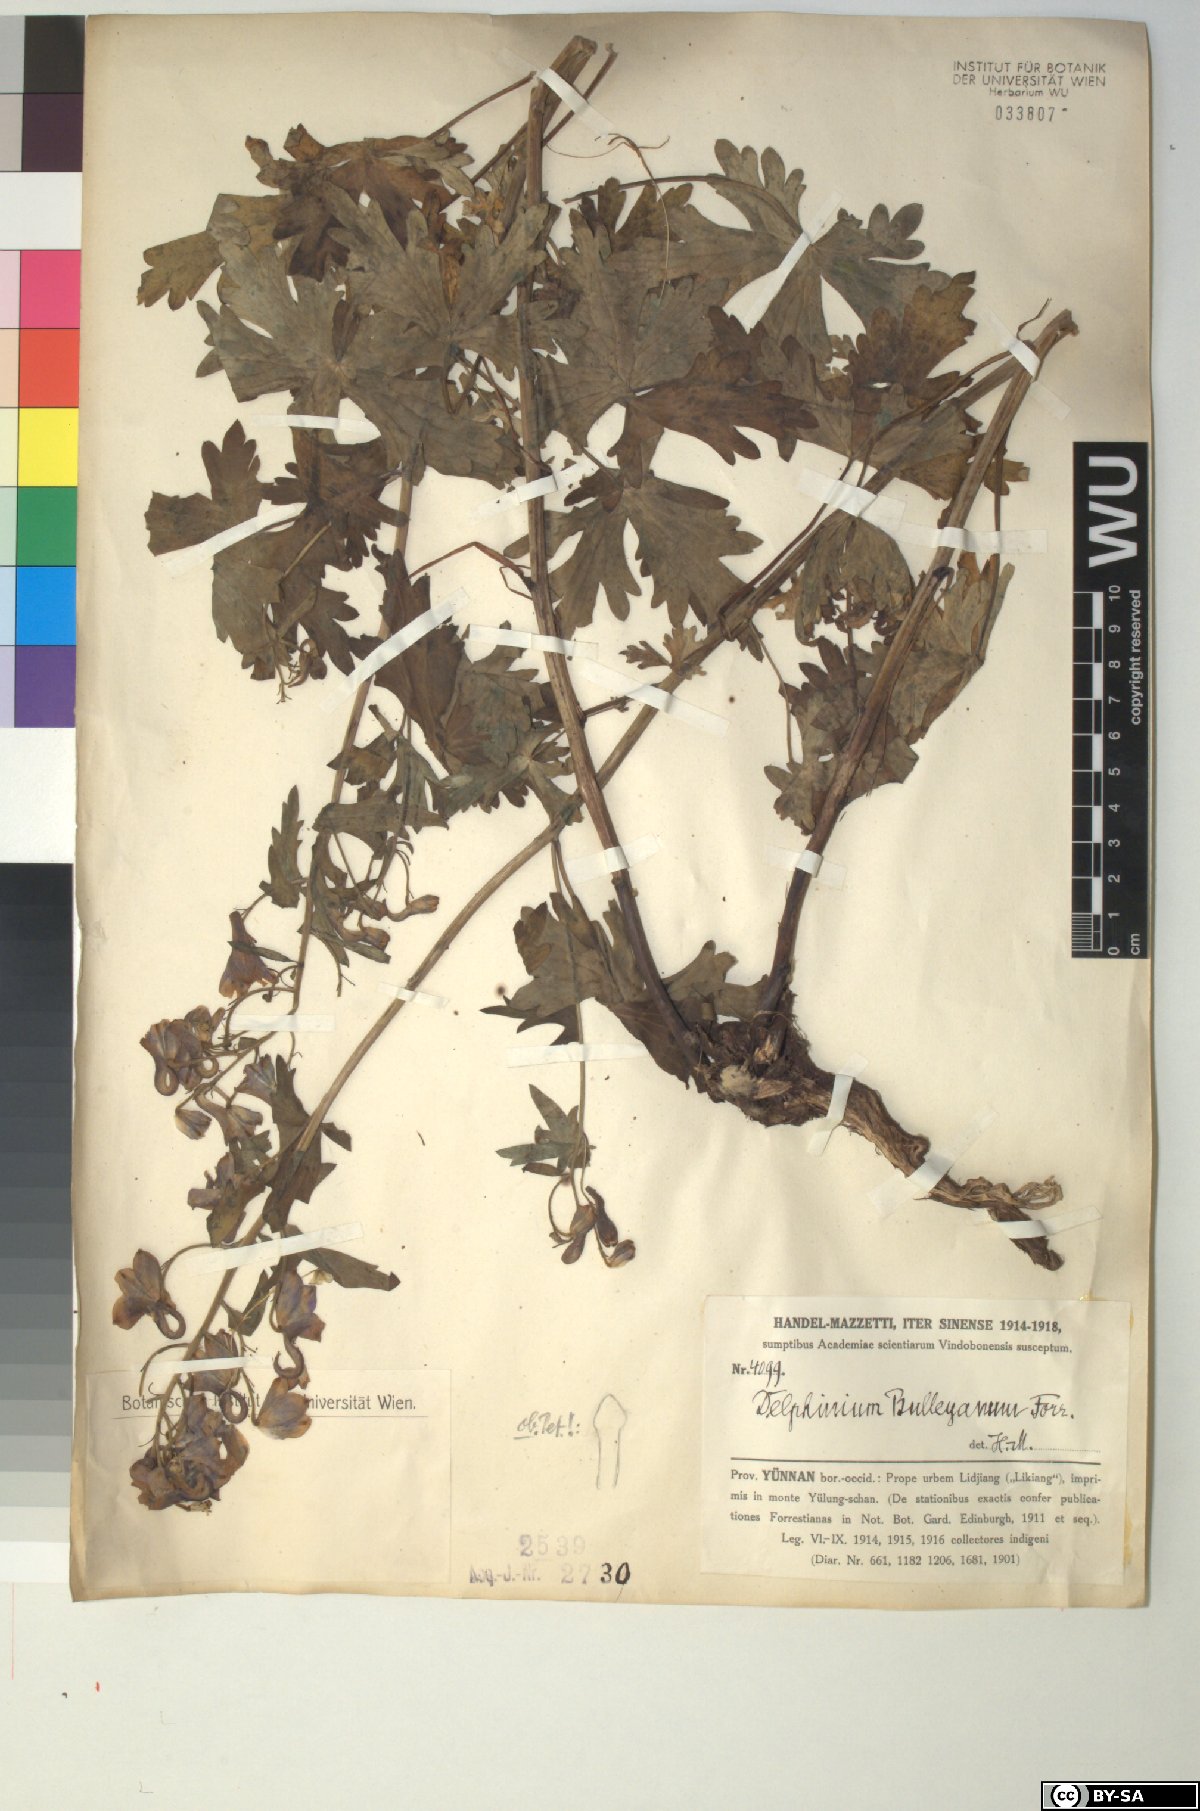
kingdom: Plantae
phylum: Tracheophyta
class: Magnoliopsida
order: Ranunculales
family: Ranunculaceae
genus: Delphinium
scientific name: Delphinium bulleyanum
